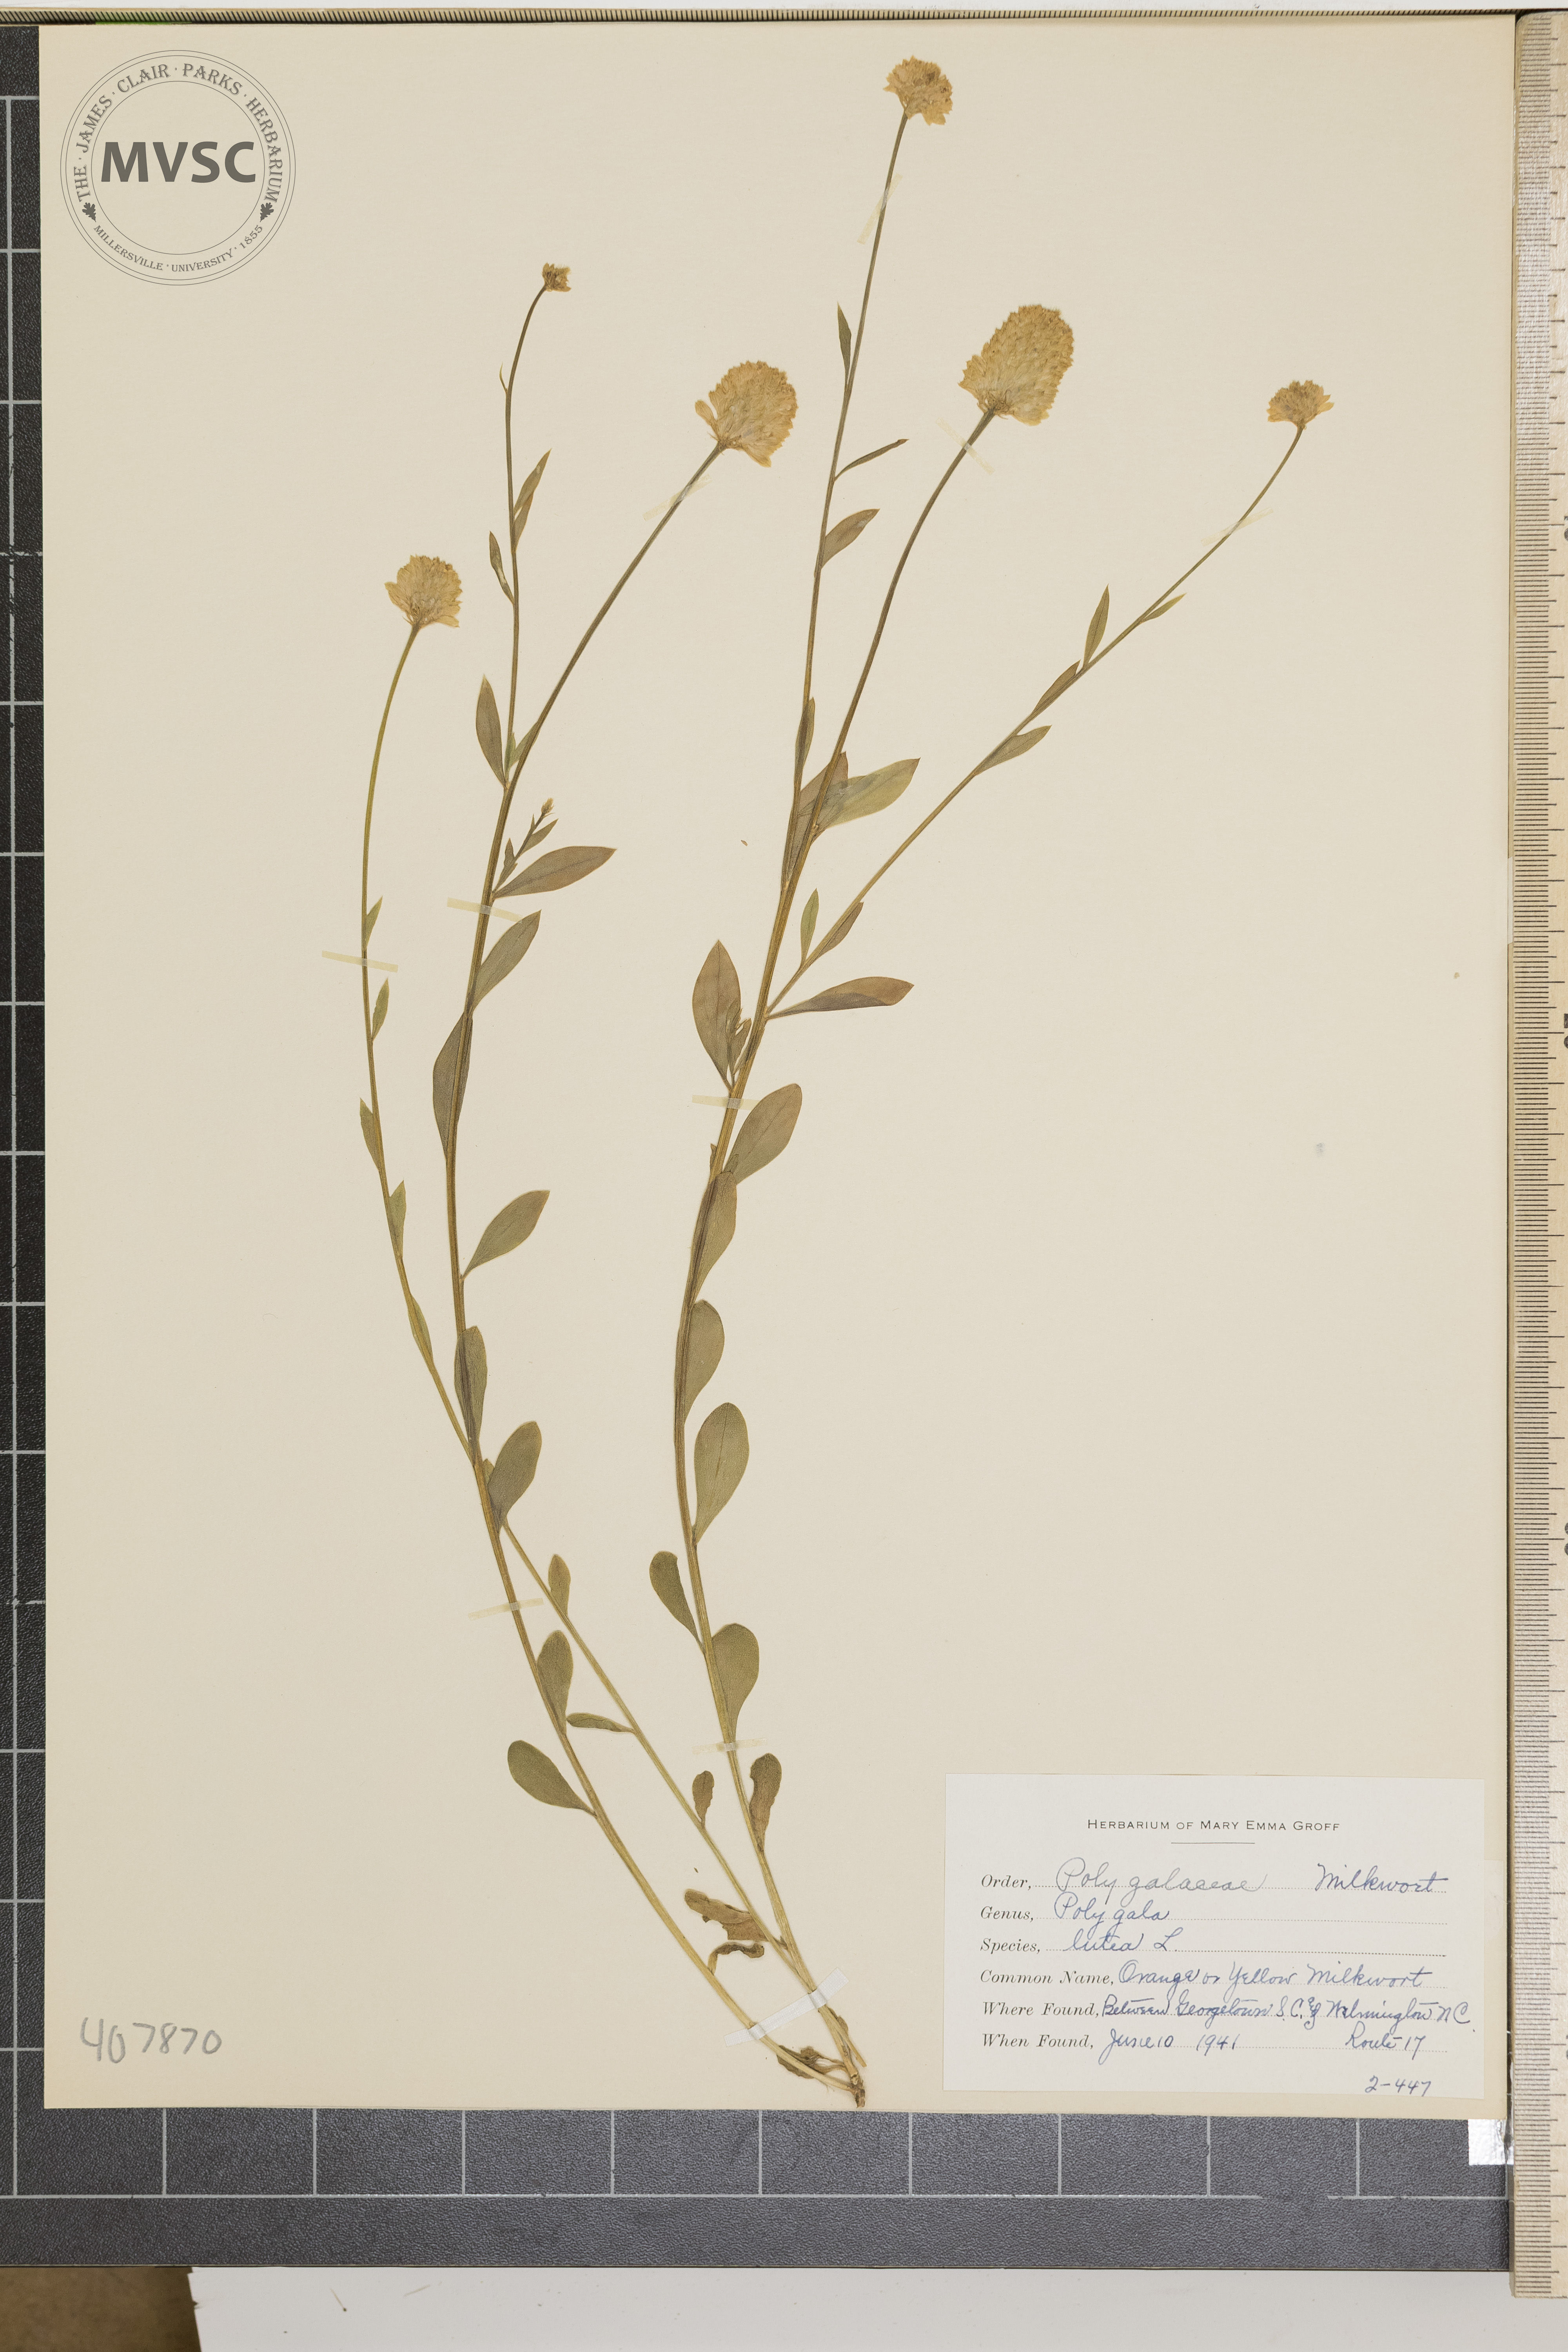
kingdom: Plantae
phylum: Tracheophyta
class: Magnoliopsida
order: Fabales
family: Polygalaceae
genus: Polygala
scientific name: Polygala lutea
